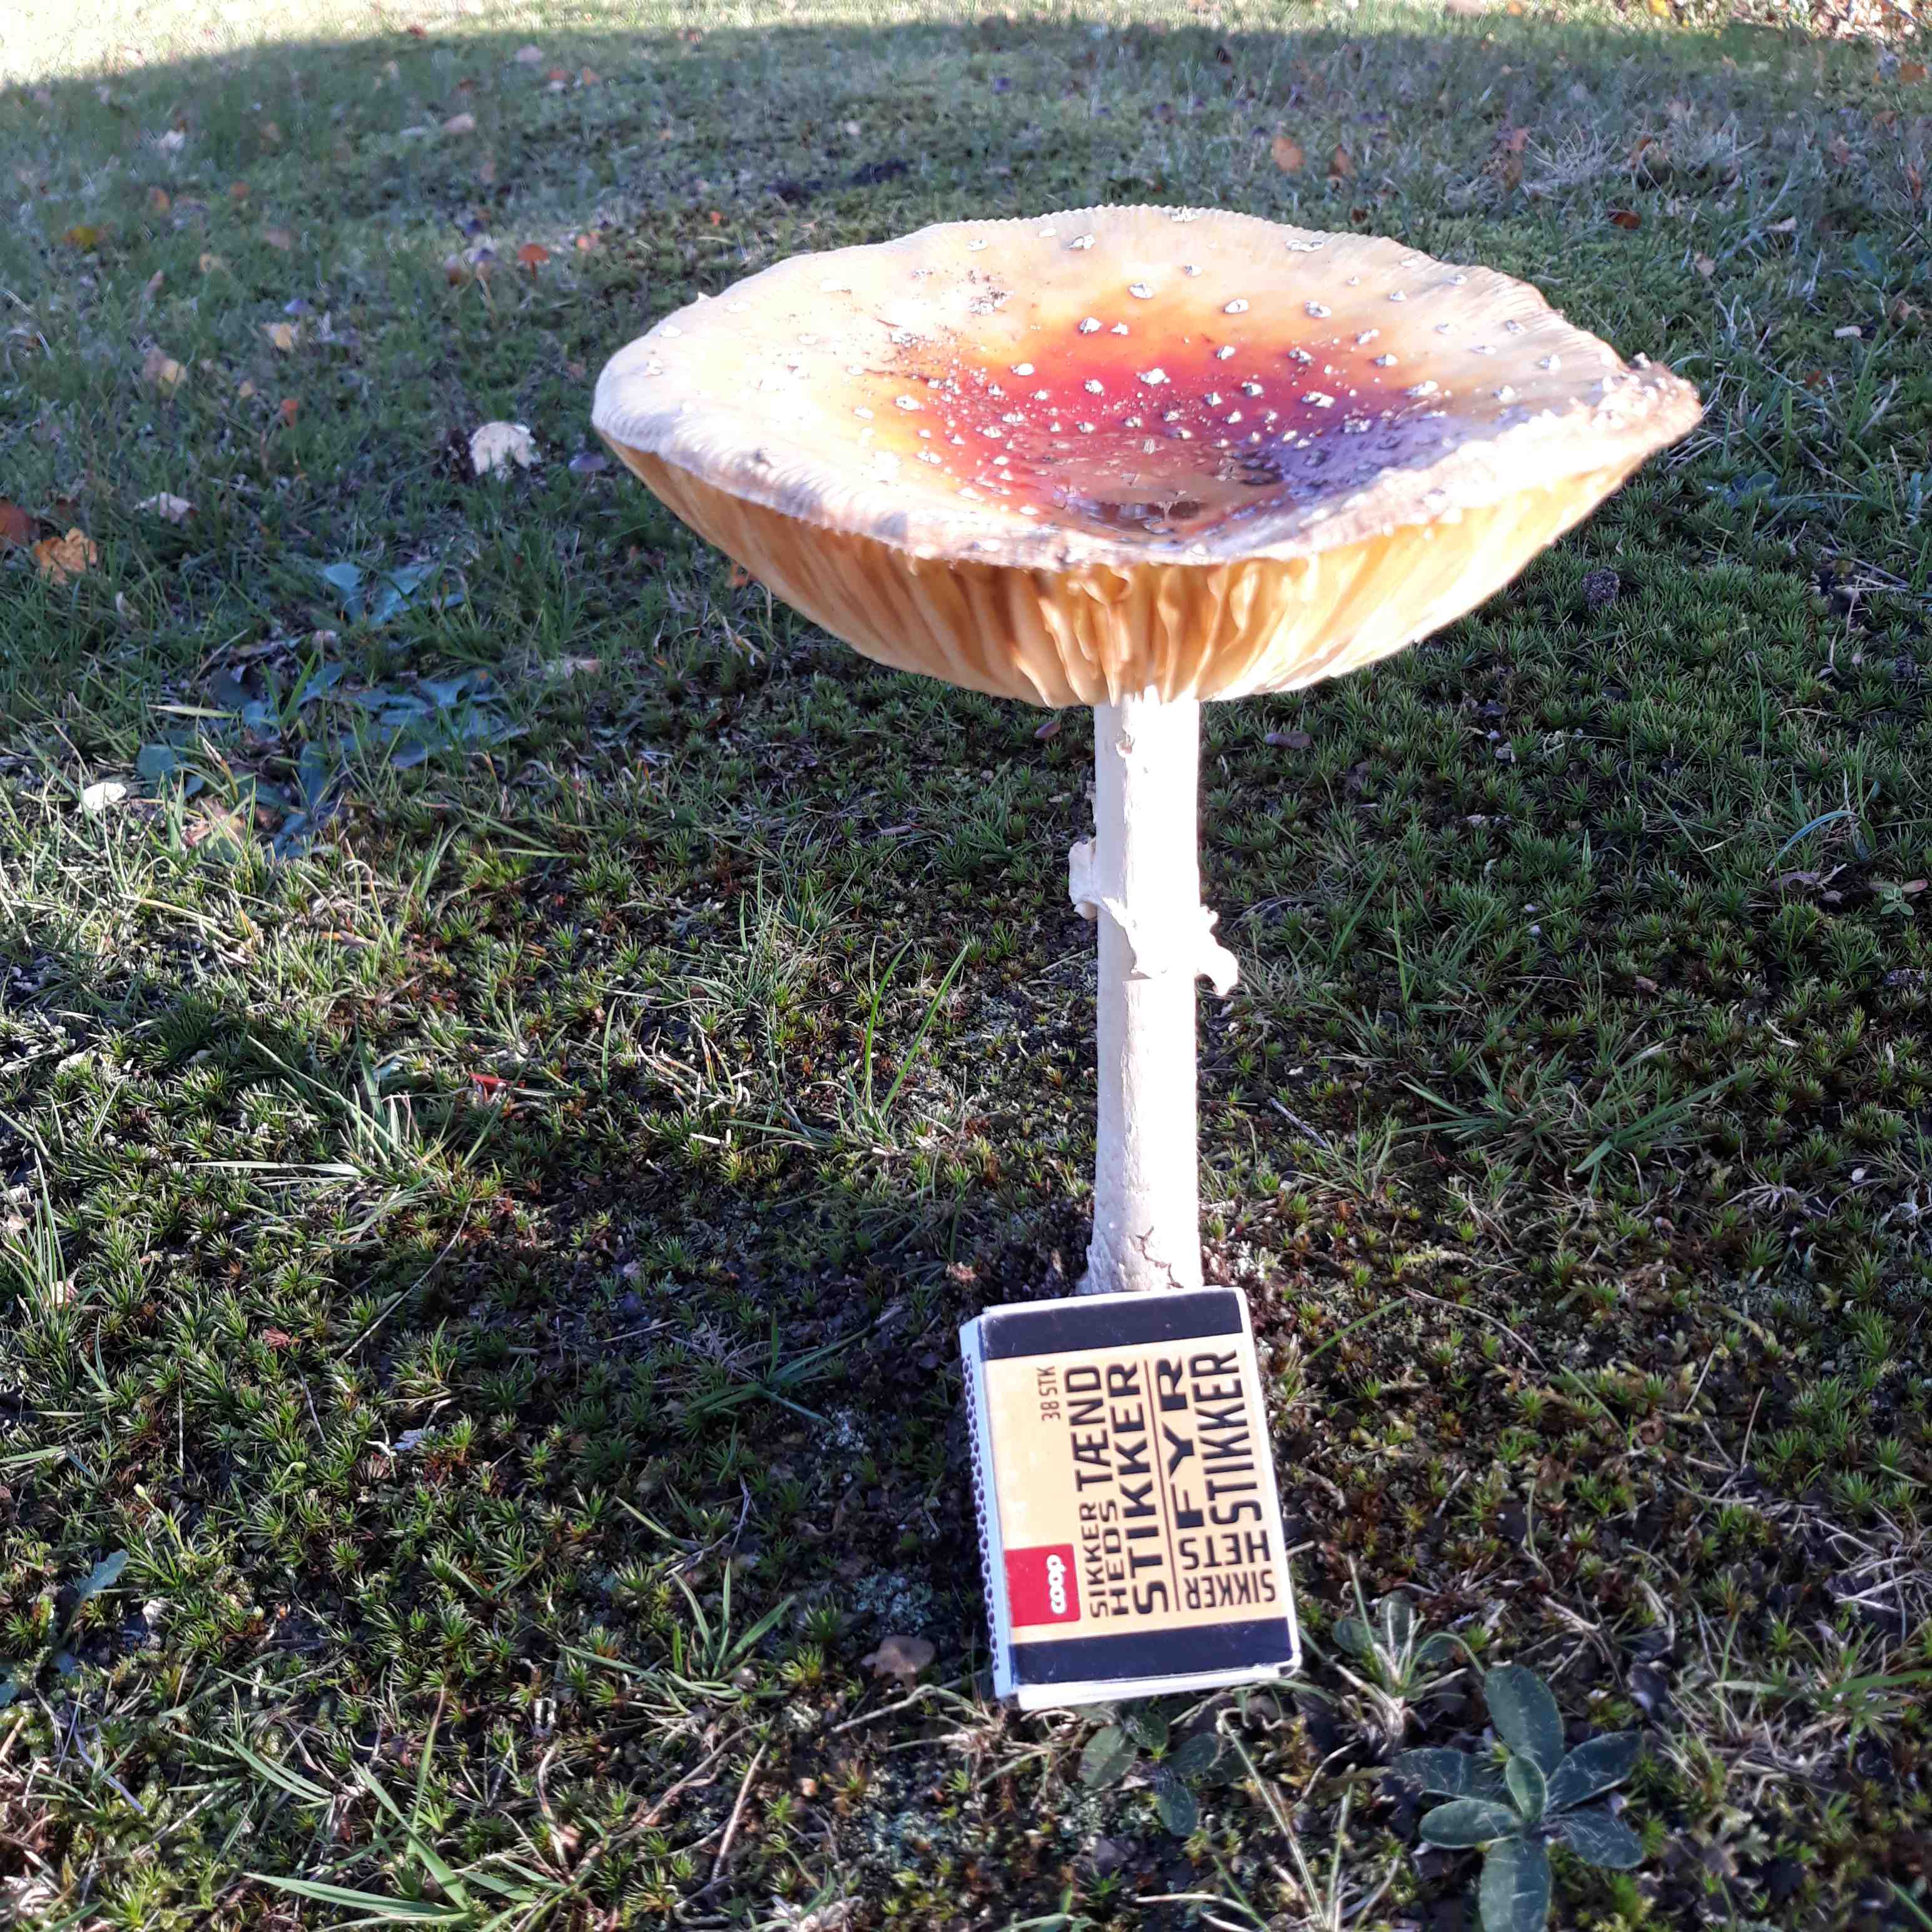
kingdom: Fungi
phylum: Basidiomycota
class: Agaricomycetes
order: Agaricales
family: Amanitaceae
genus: Amanita
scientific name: Amanita muscaria
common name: rød fluesvamp
